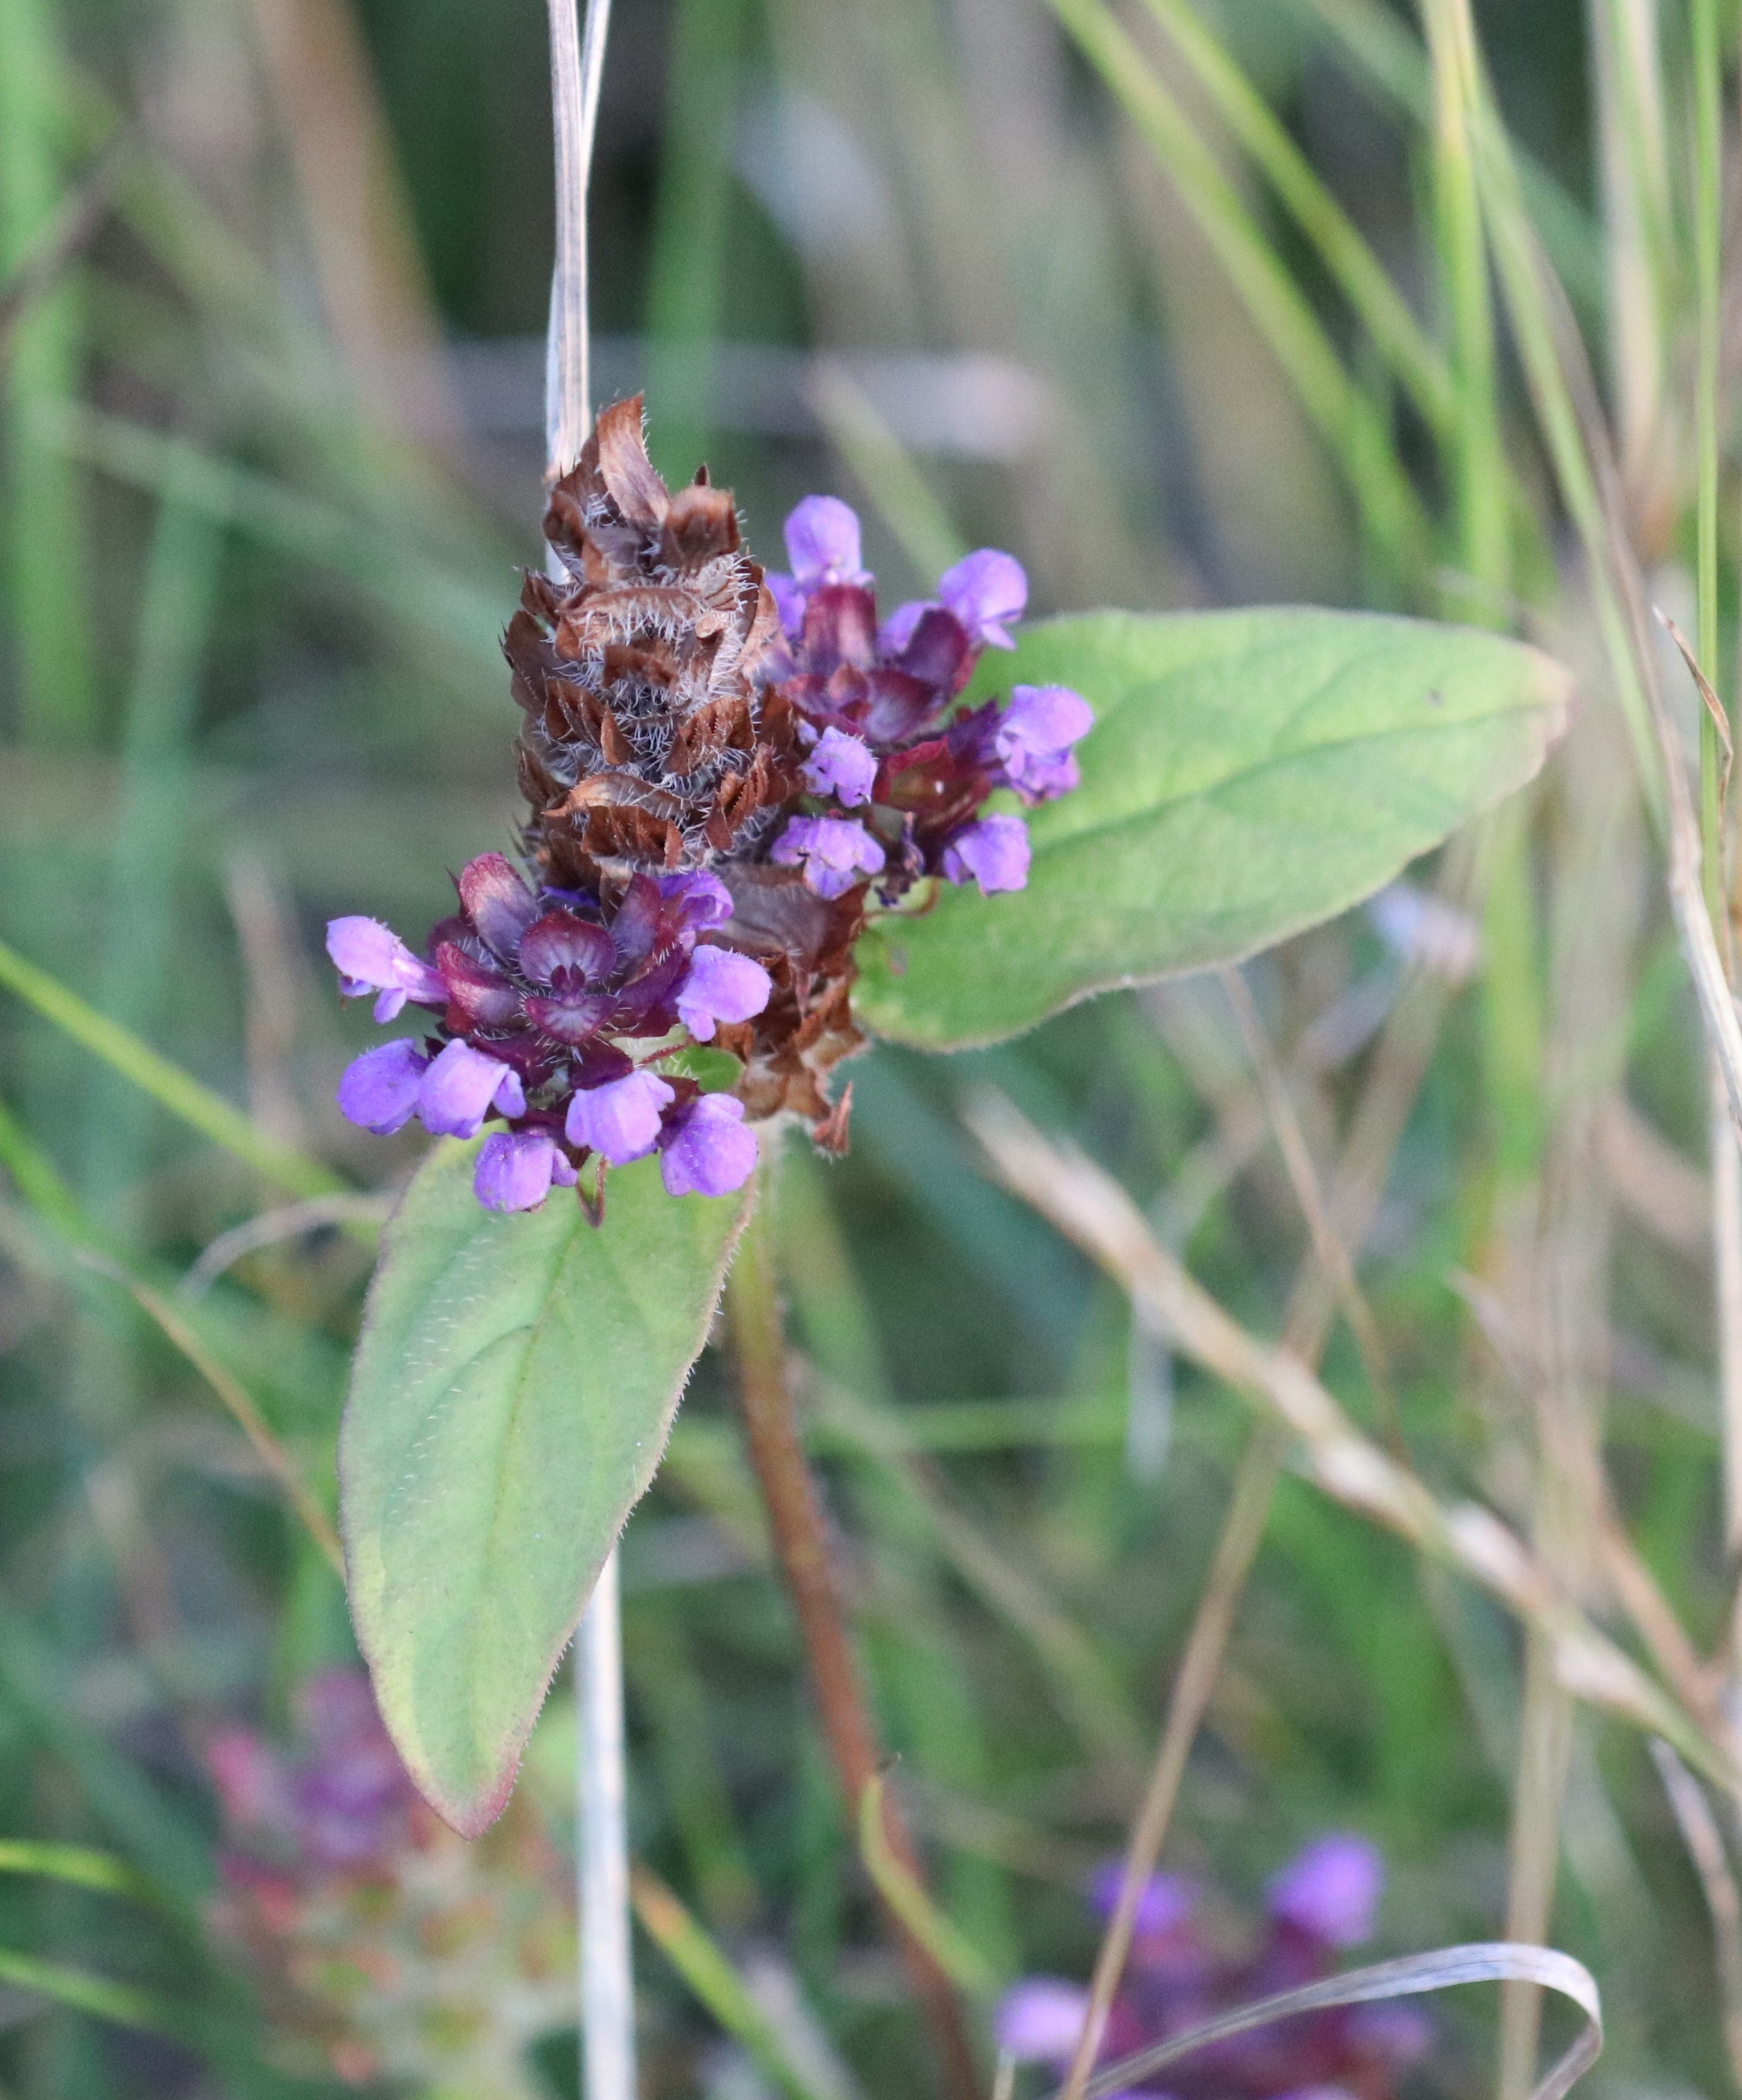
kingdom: Plantae
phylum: Tracheophyta
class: Magnoliopsida
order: Lamiales
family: Lamiaceae
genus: Prunella
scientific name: Prunella vulgaris
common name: Almindelig brunelle
